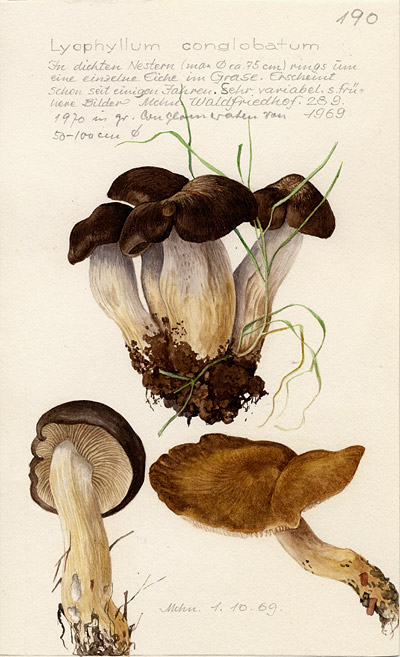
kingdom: Fungi
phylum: Basidiomycota
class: Agaricomycetes
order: Agaricales
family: Lyophyllaceae
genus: Lyophyllum
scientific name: Lyophyllum loricatum
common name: Gristly domecap
